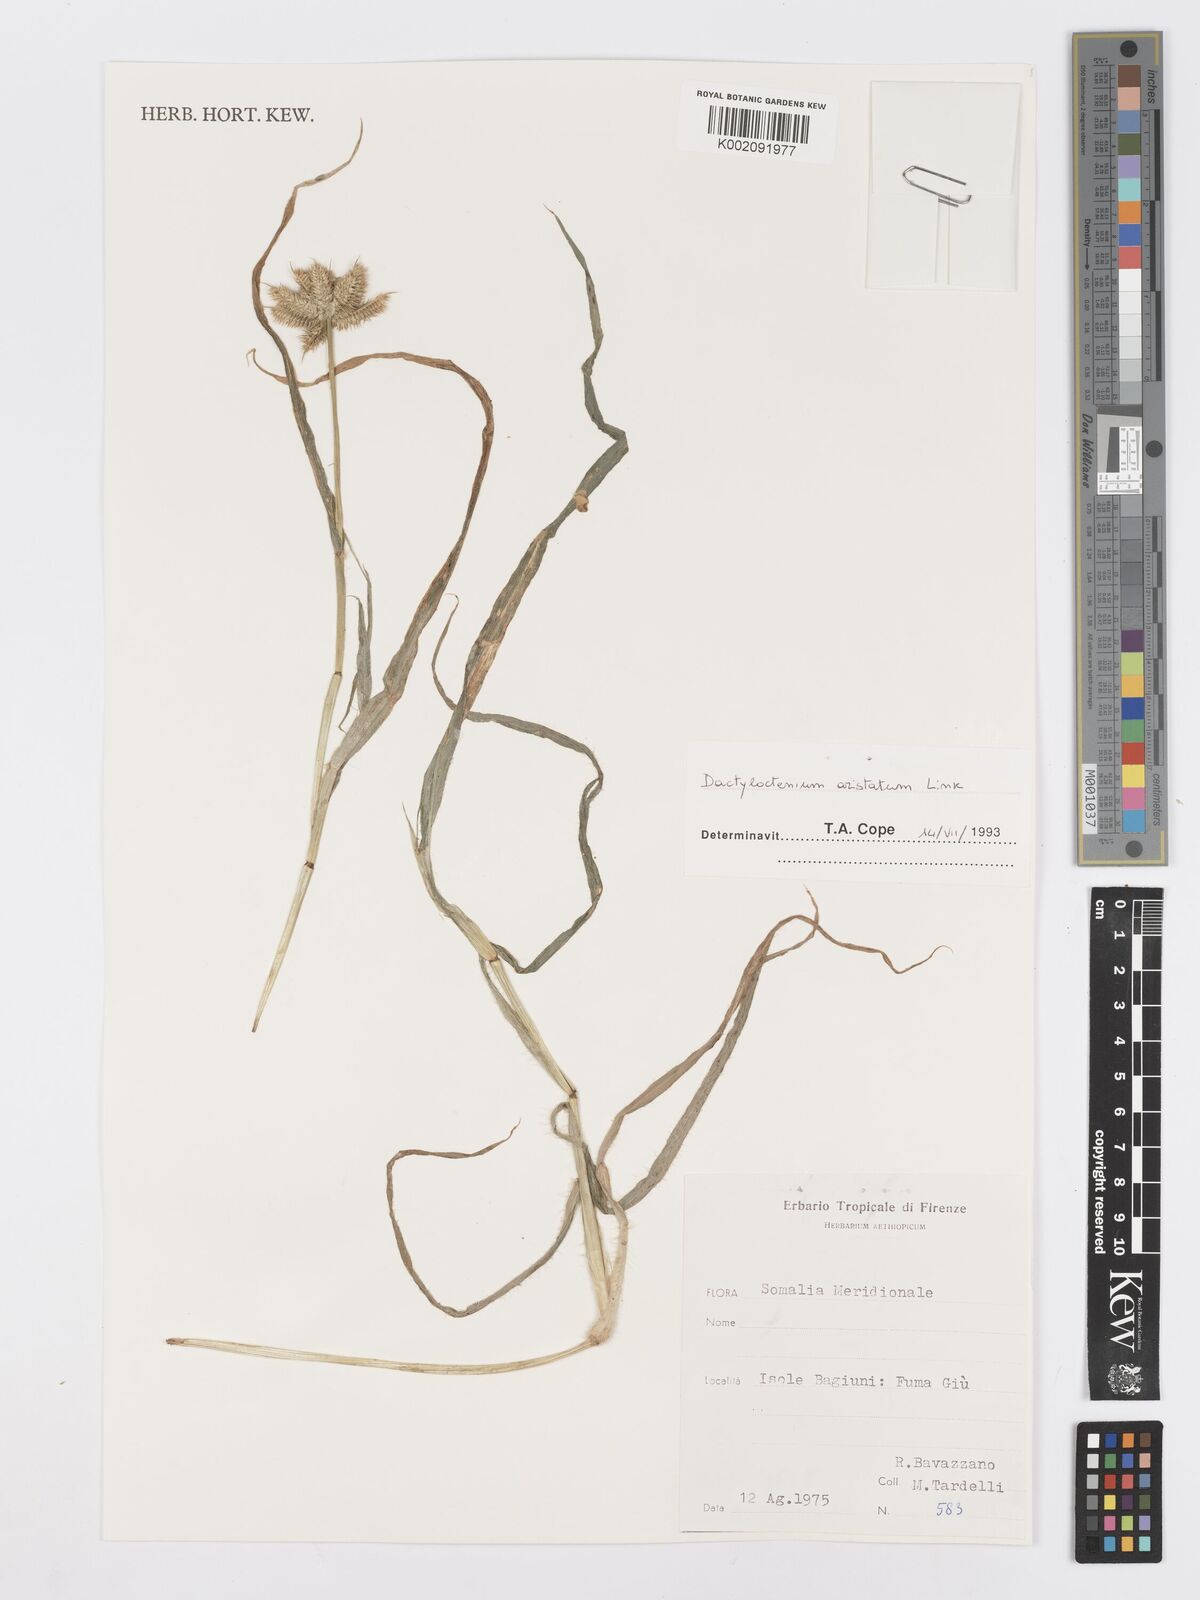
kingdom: Plantae
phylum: Tracheophyta
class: Liliopsida
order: Poales
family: Poaceae
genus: Dactyloctenium
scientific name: Dactyloctenium aristatum
